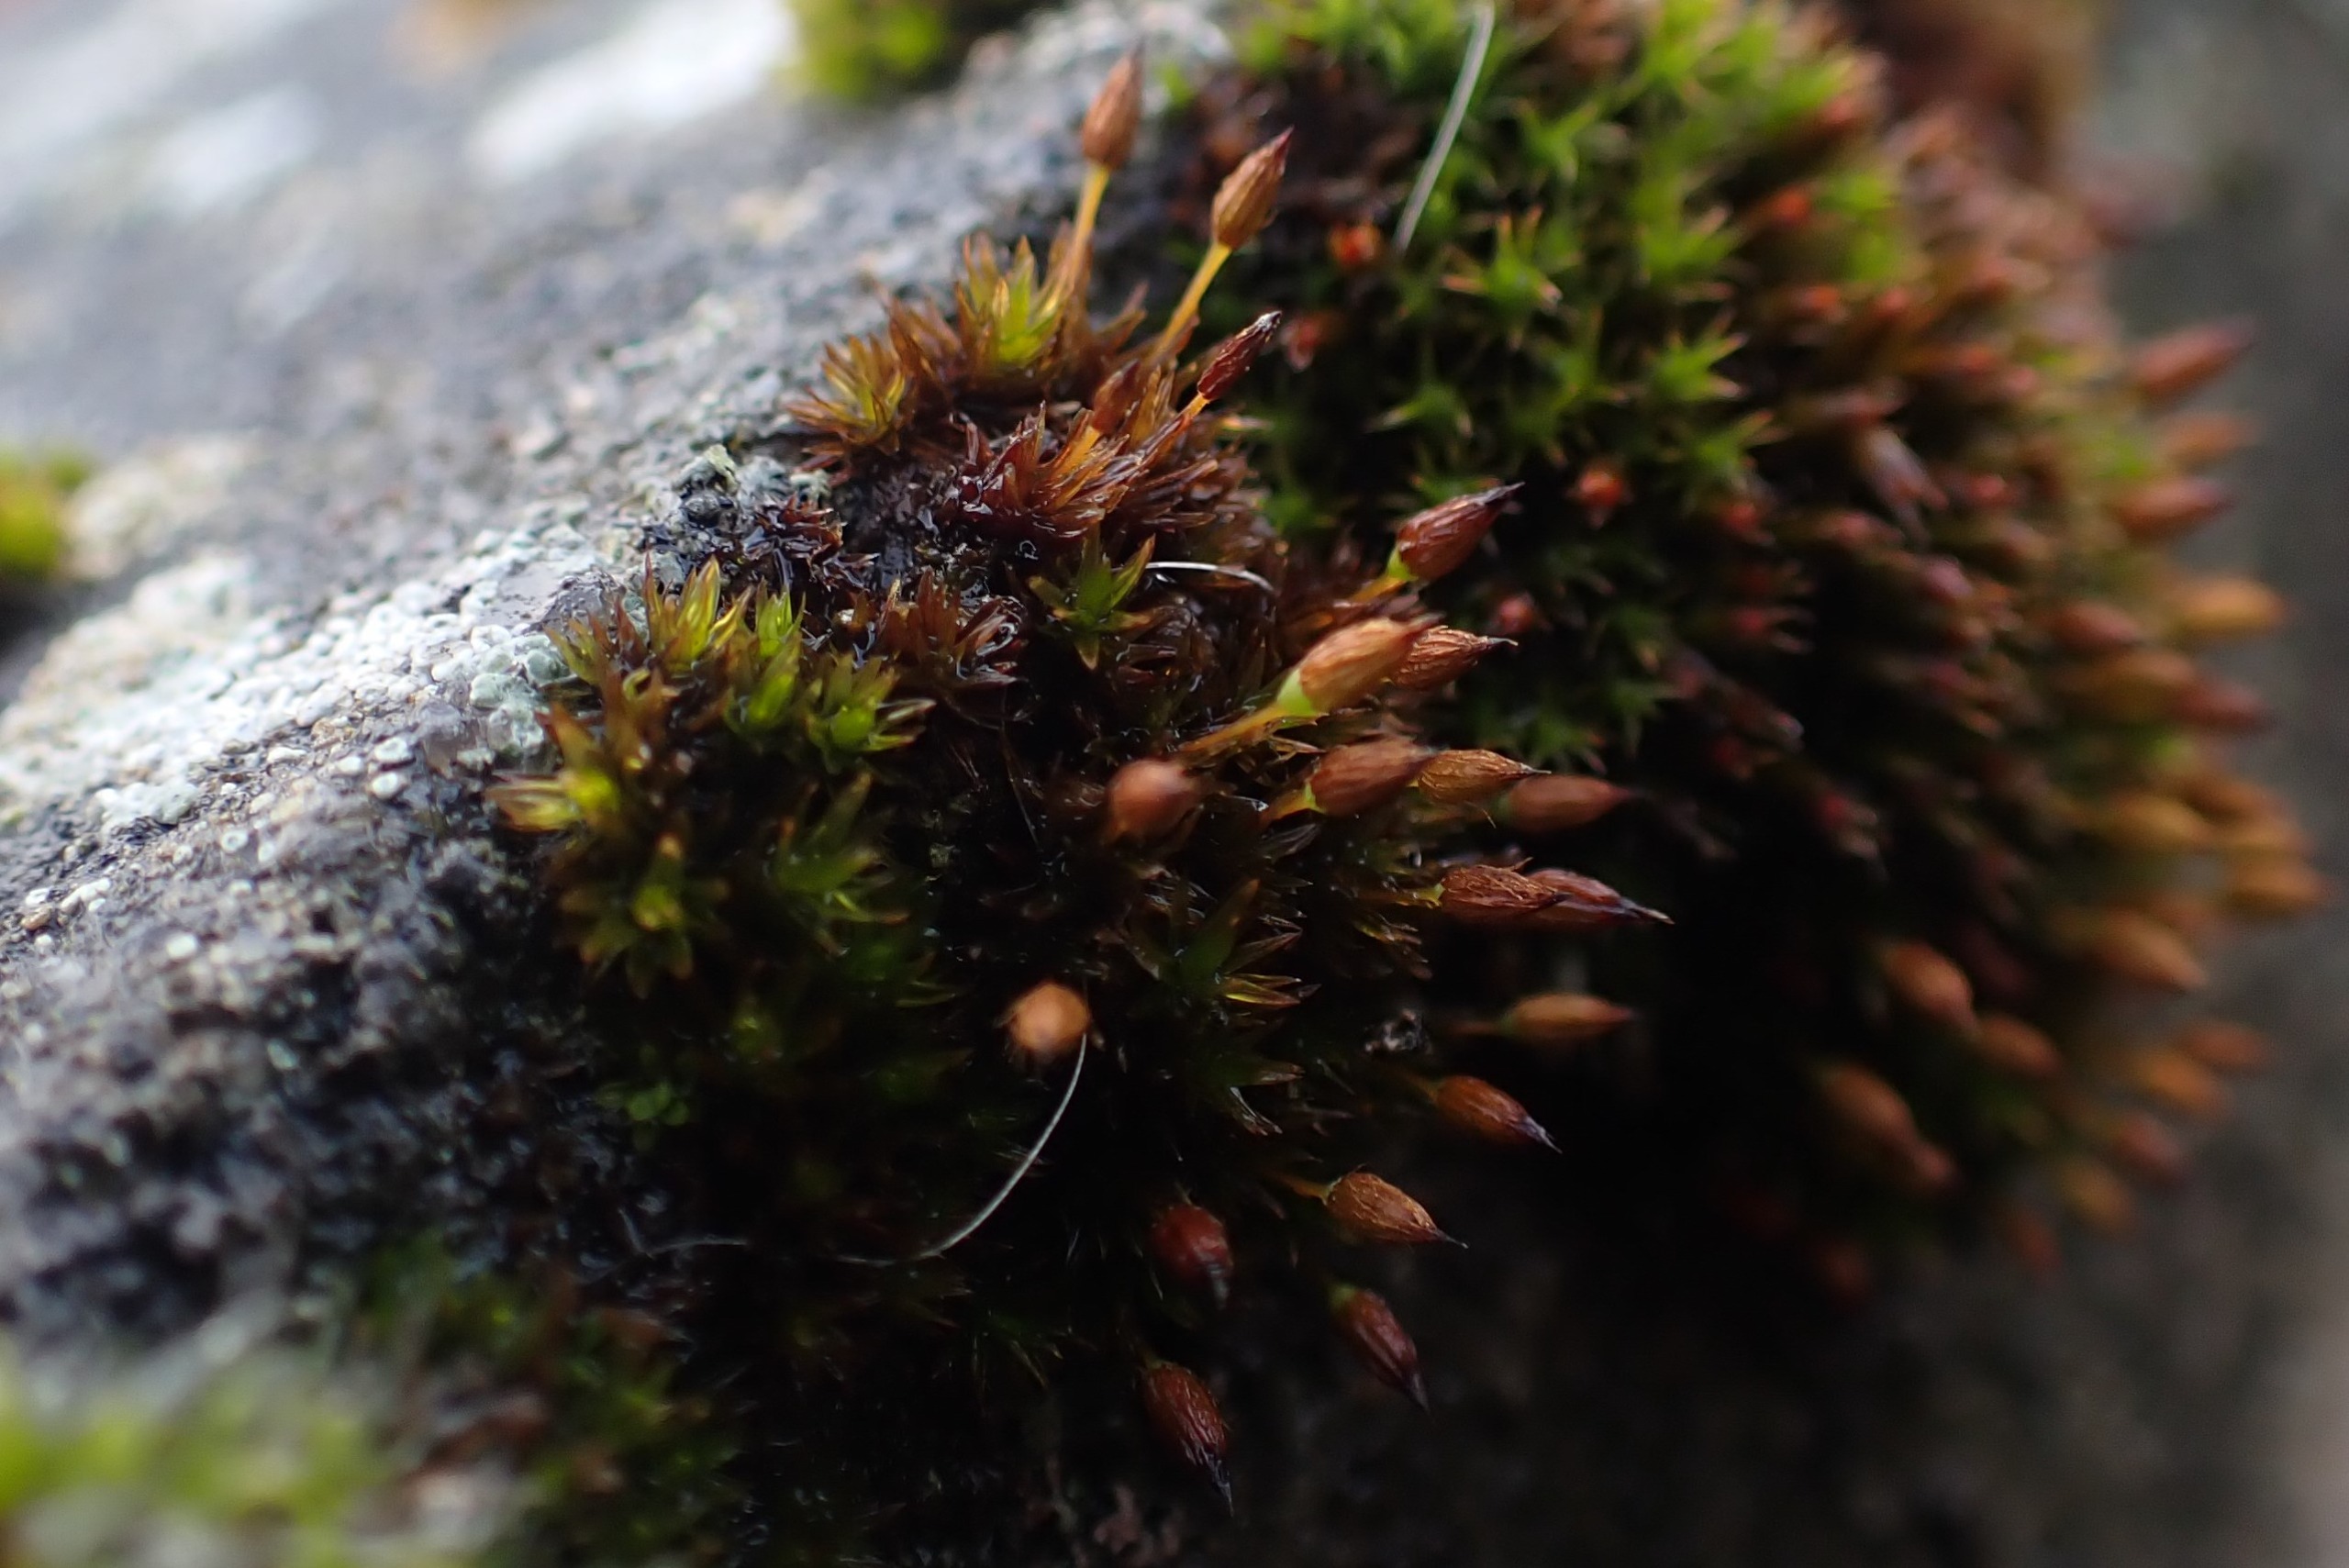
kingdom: Plantae
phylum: Bryophyta
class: Bryopsida
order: Orthotrichales
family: Orthotrichaceae
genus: Orthotrichum
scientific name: Orthotrichum anomalum
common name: Mørk furehætte
